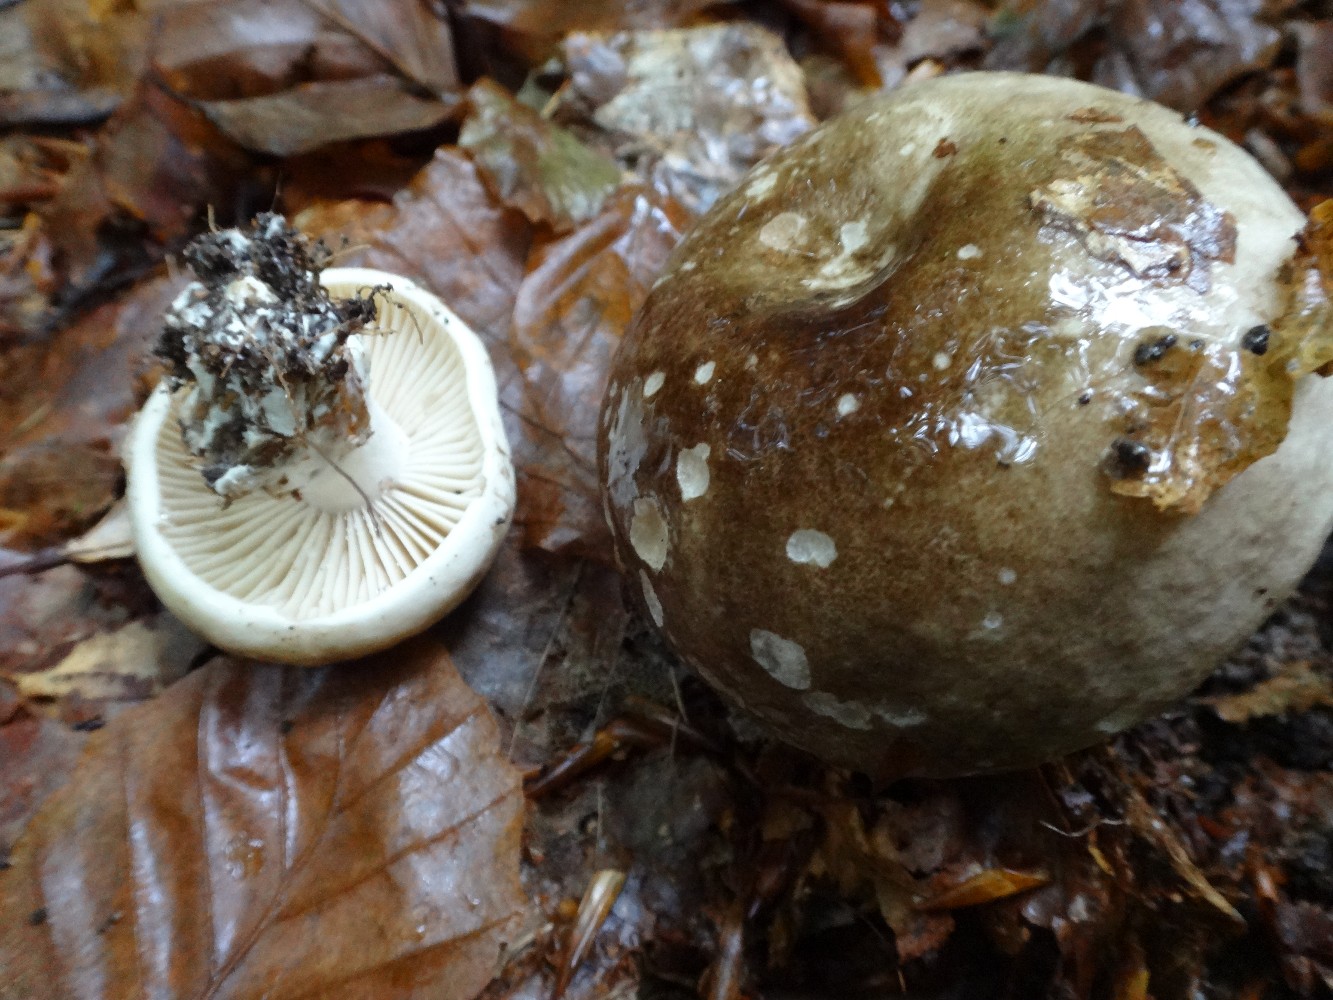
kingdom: Fungi
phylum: Basidiomycota
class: Agaricomycetes
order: Russulales
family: Russulaceae
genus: Russula
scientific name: Russula adusta
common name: sværtende skørhat
